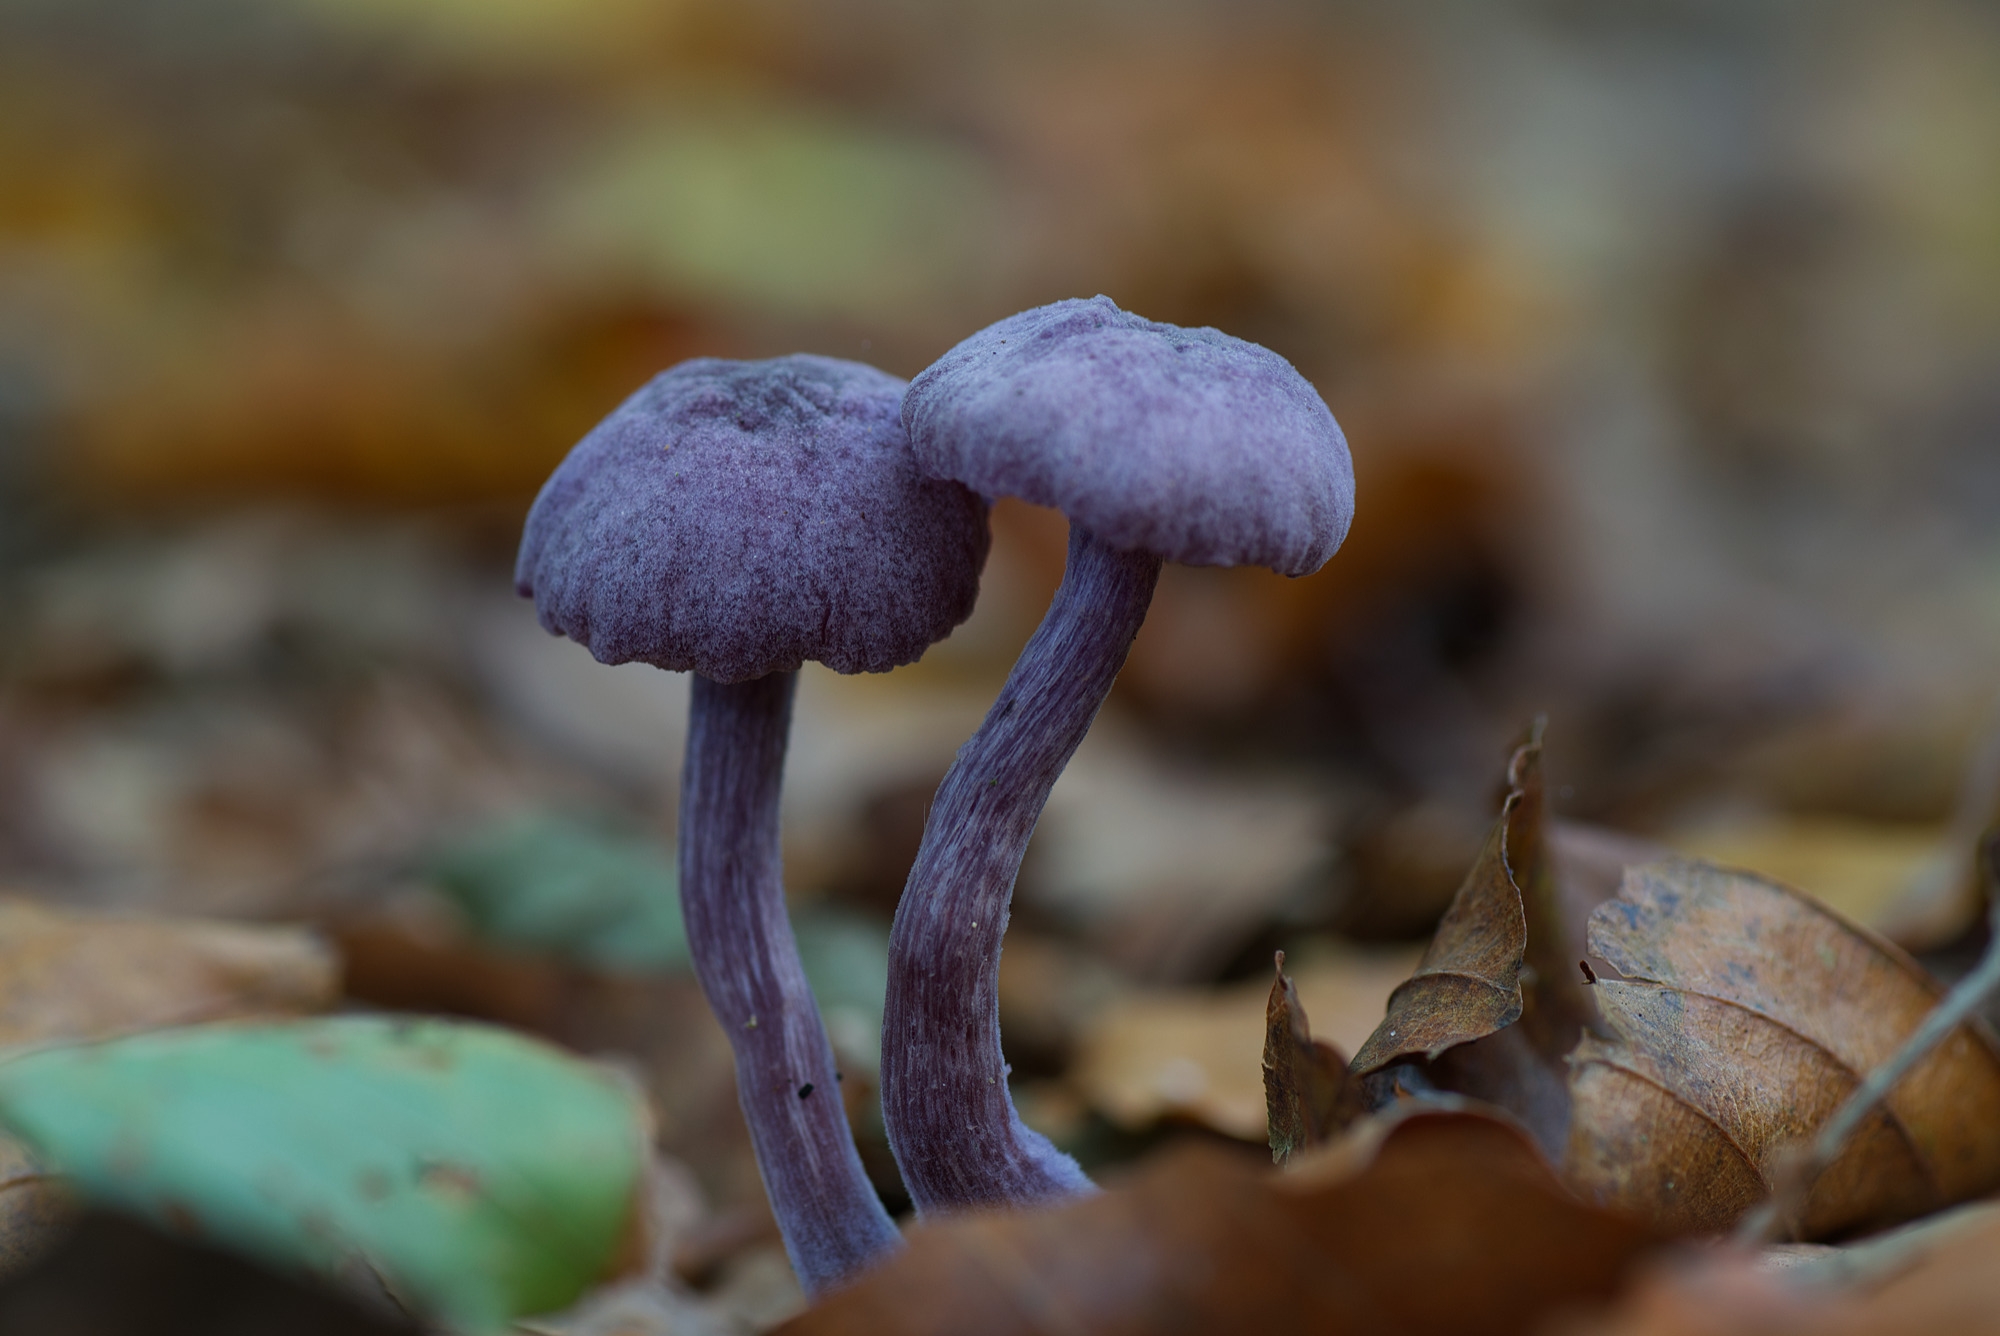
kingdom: Fungi
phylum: Basidiomycota
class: Agaricomycetes
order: Agaricales
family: Hydnangiaceae
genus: Laccaria
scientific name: Laccaria amethystina
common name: violet ametysthat
